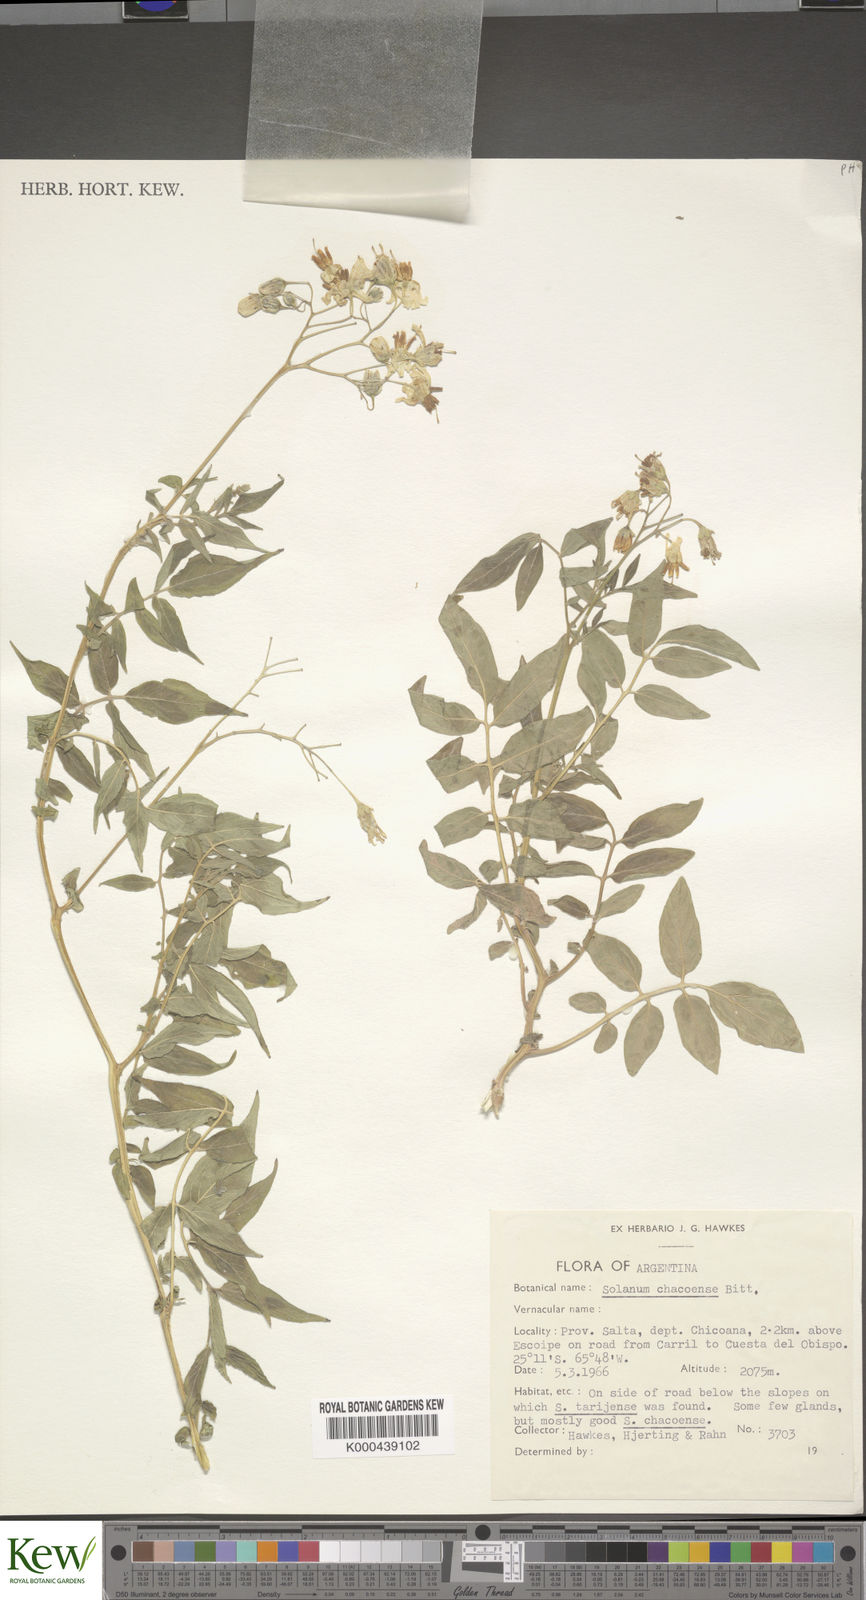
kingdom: Plantae
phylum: Tracheophyta
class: Magnoliopsida
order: Solanales
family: Solanaceae
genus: Solanum
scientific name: Solanum chacoense
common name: Chaco potato
